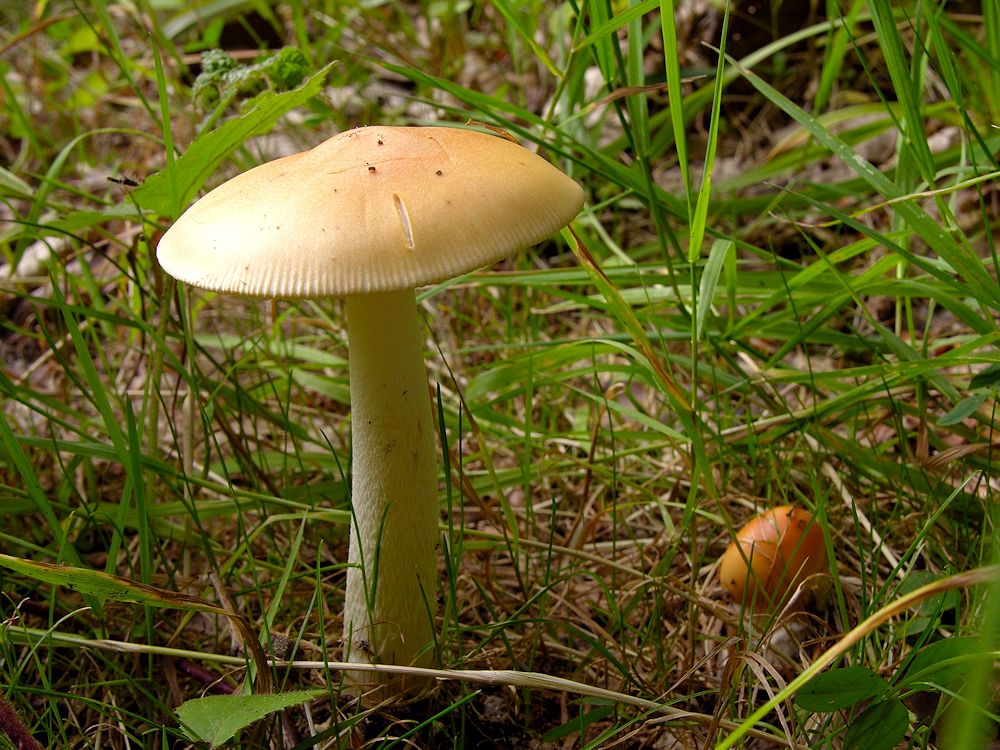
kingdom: Fungi
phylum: Basidiomycota
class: Agaricomycetes
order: Agaricales
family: Amanitaceae
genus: Amanita
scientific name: Amanita contui
